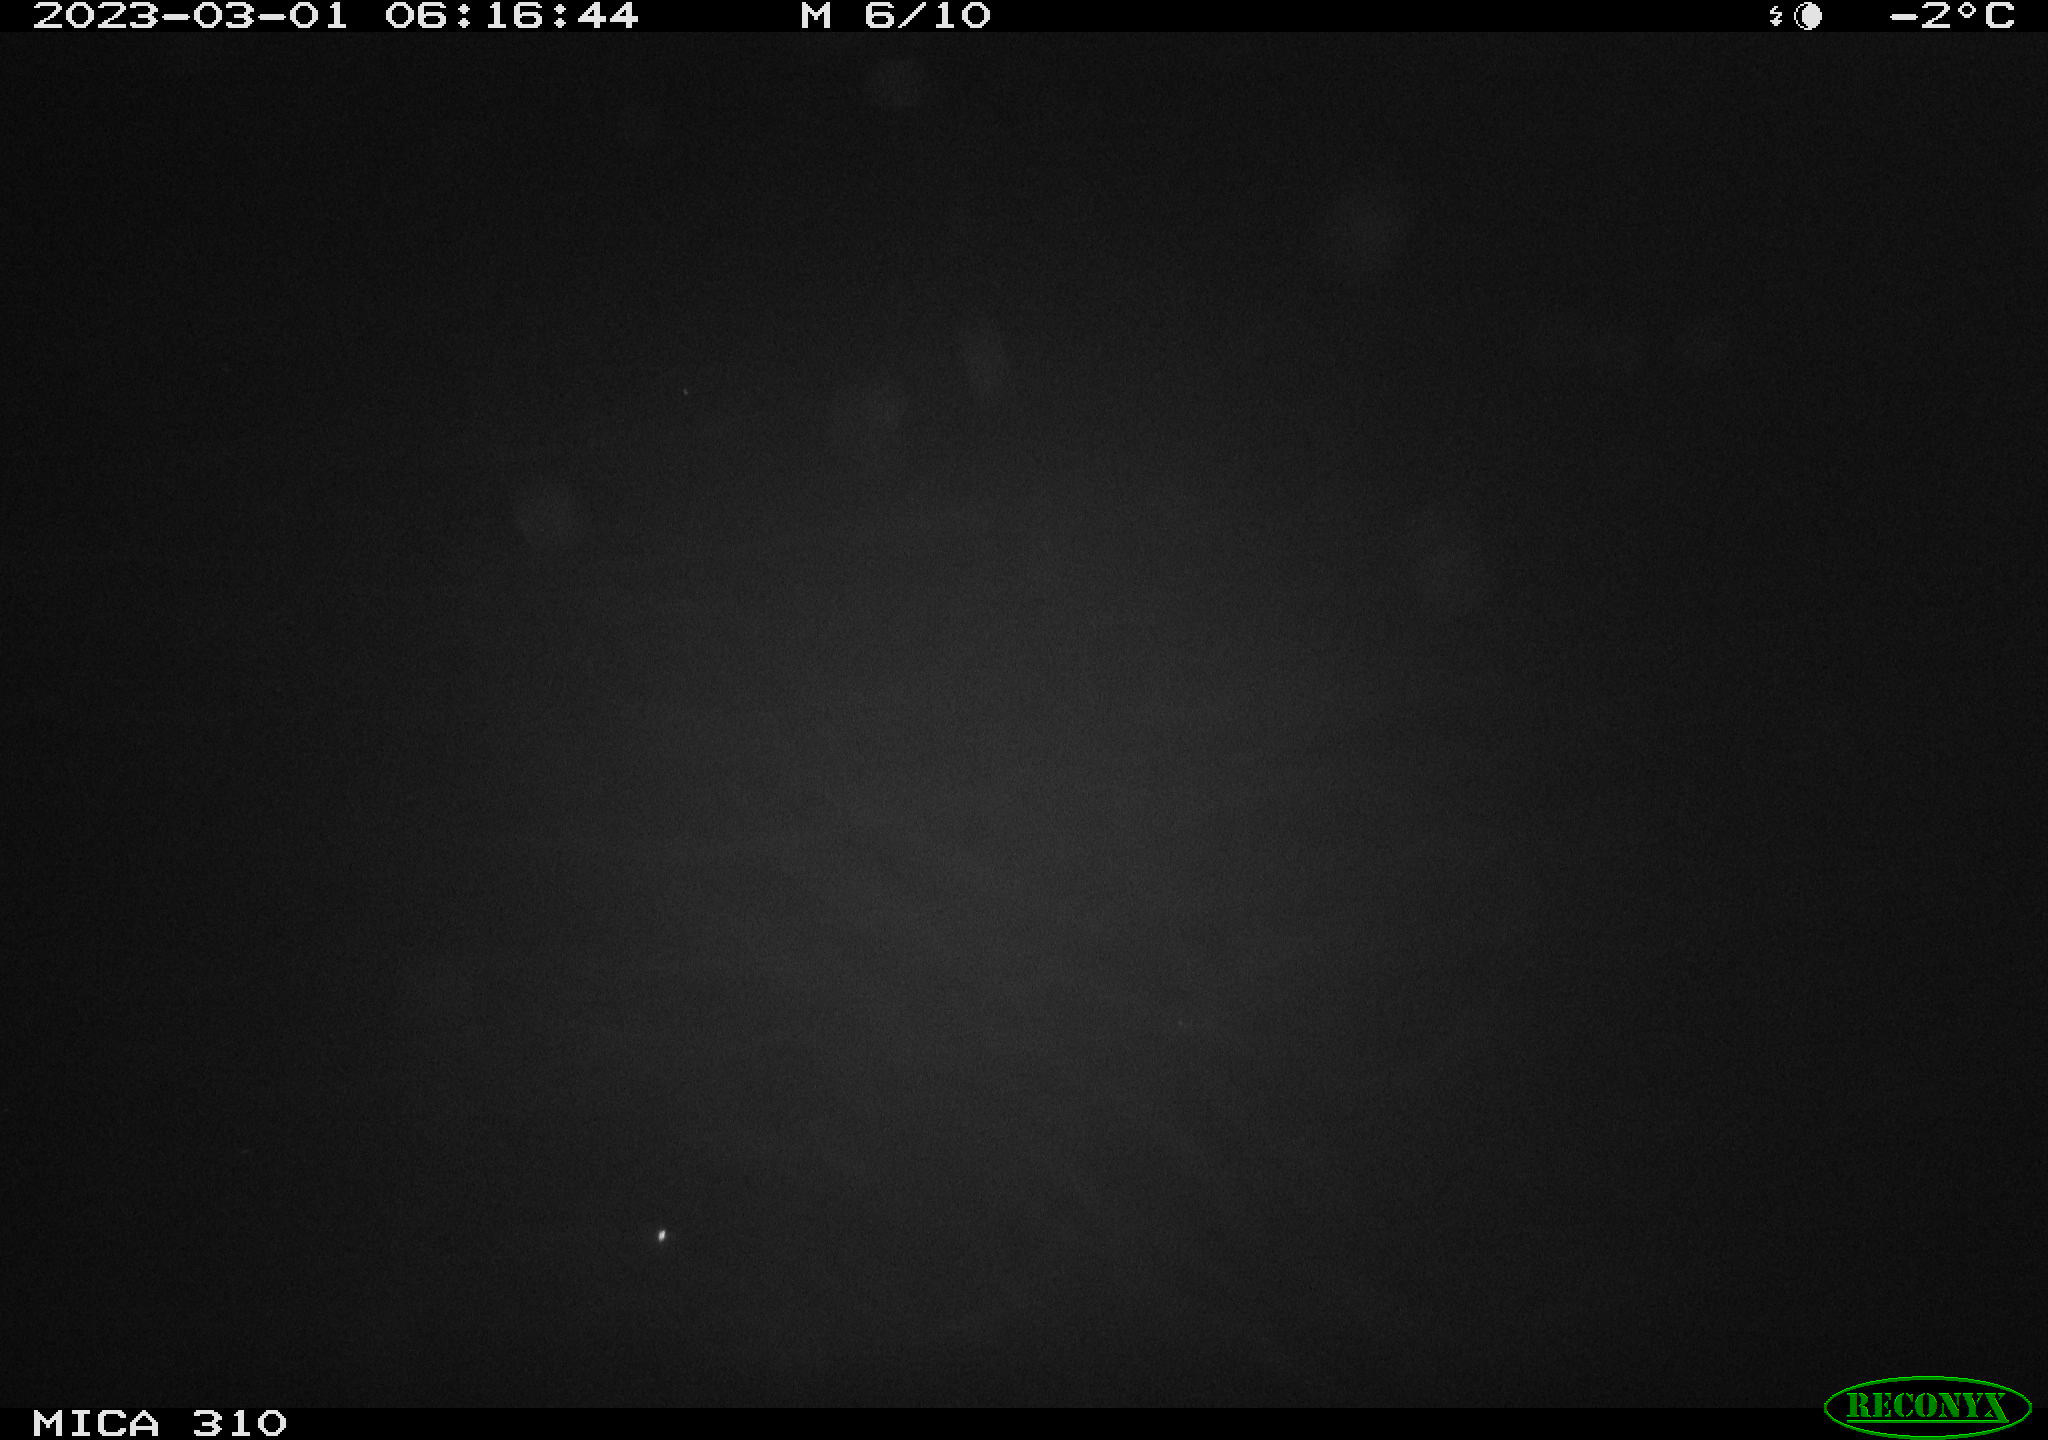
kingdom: Animalia
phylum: Chordata
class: Mammalia
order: Rodentia
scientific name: Rodentia
